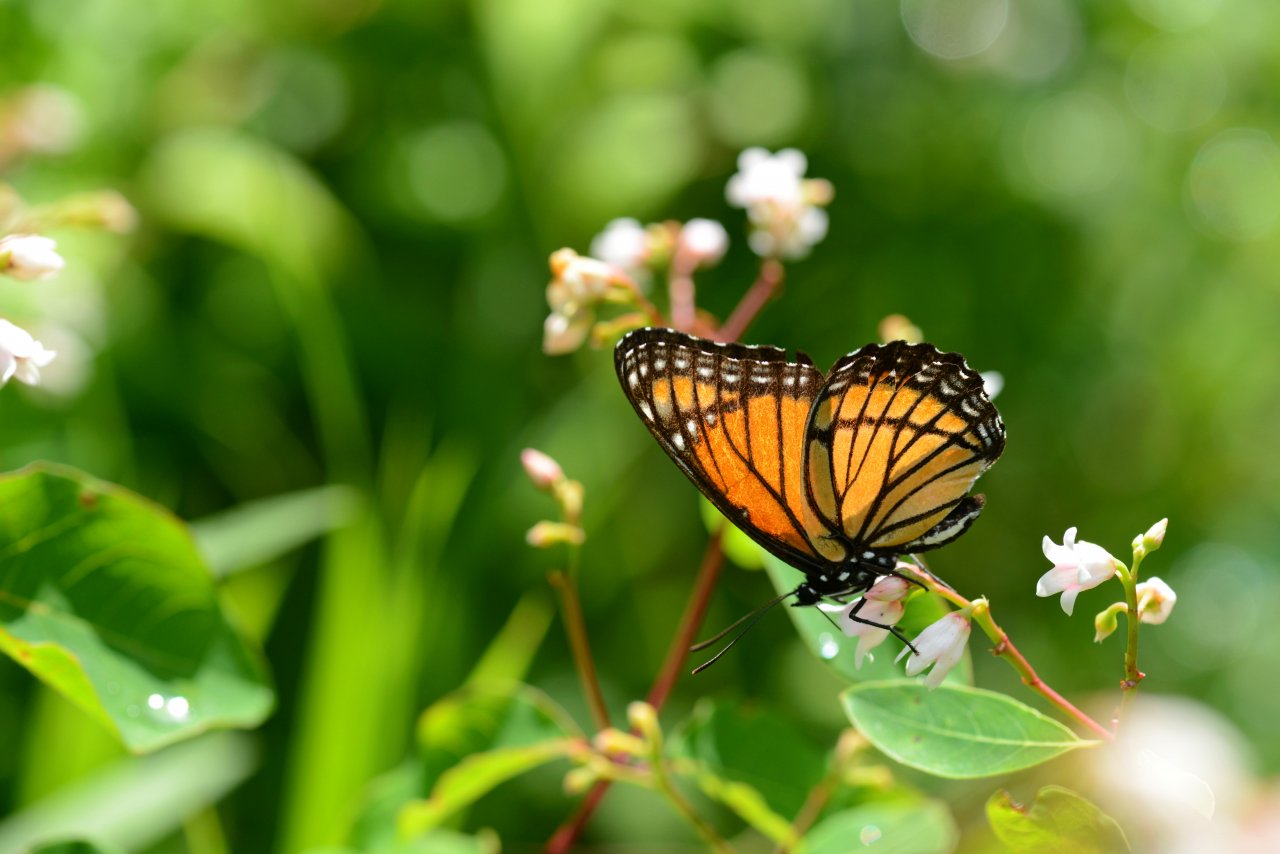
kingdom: Animalia
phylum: Arthropoda
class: Insecta
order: Lepidoptera
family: Nymphalidae
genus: Limenitis
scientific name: Limenitis archippus
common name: Viceroy
